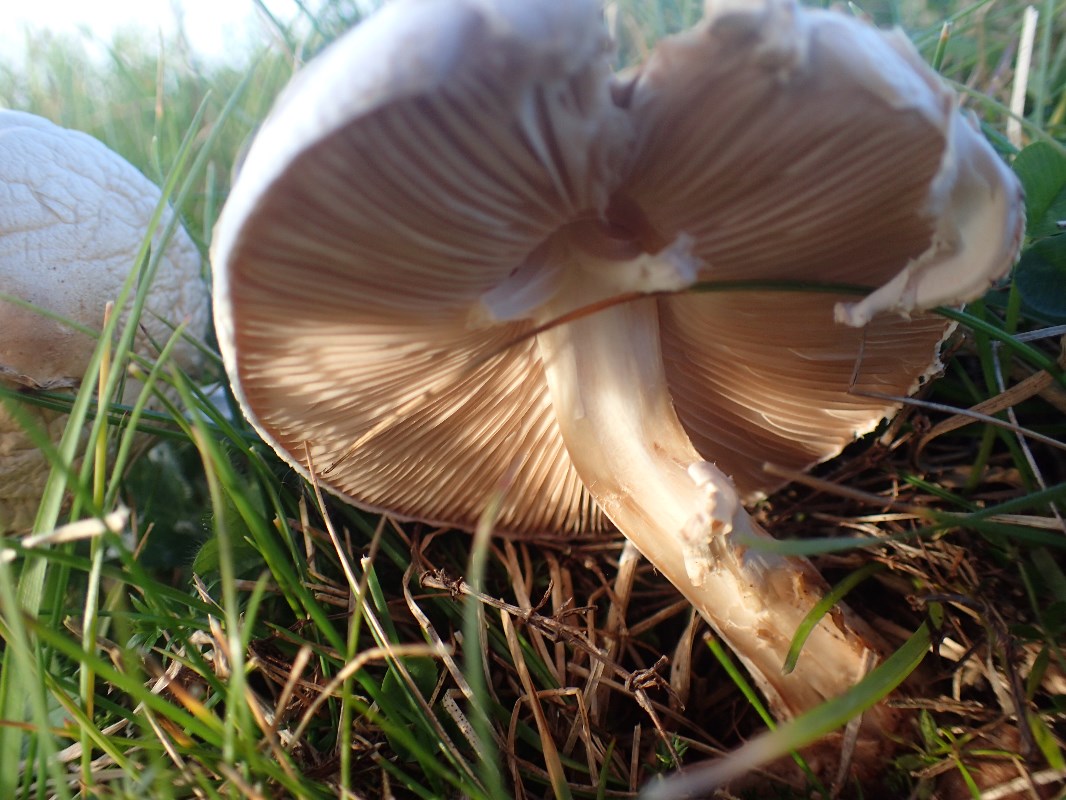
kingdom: Fungi
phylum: Basidiomycota
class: Agaricomycetes
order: Agaricales
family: Agaricaceae
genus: Leucoagaricus
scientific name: Leucoagaricus leucothites
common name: rosabladet silkehat
